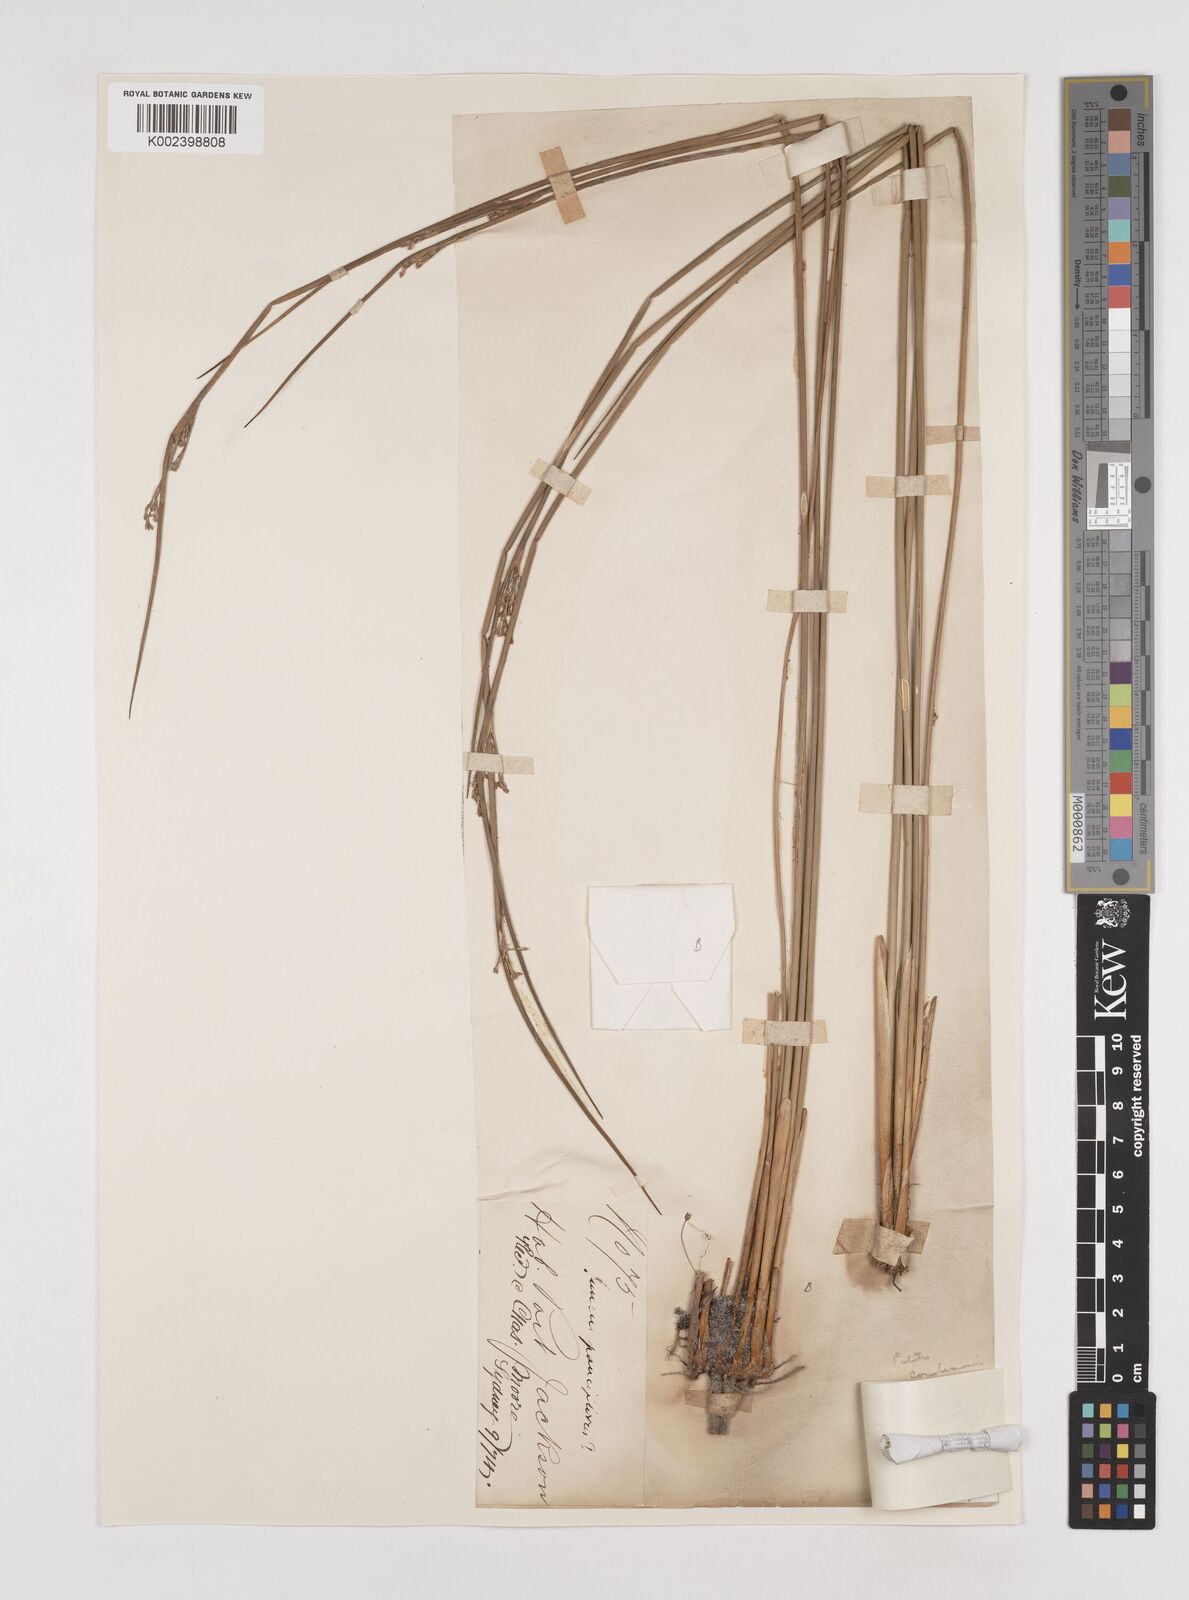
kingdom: Plantae
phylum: Tracheophyta
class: Liliopsida
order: Poales
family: Juncaceae
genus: Juncus
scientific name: Juncus continuus
